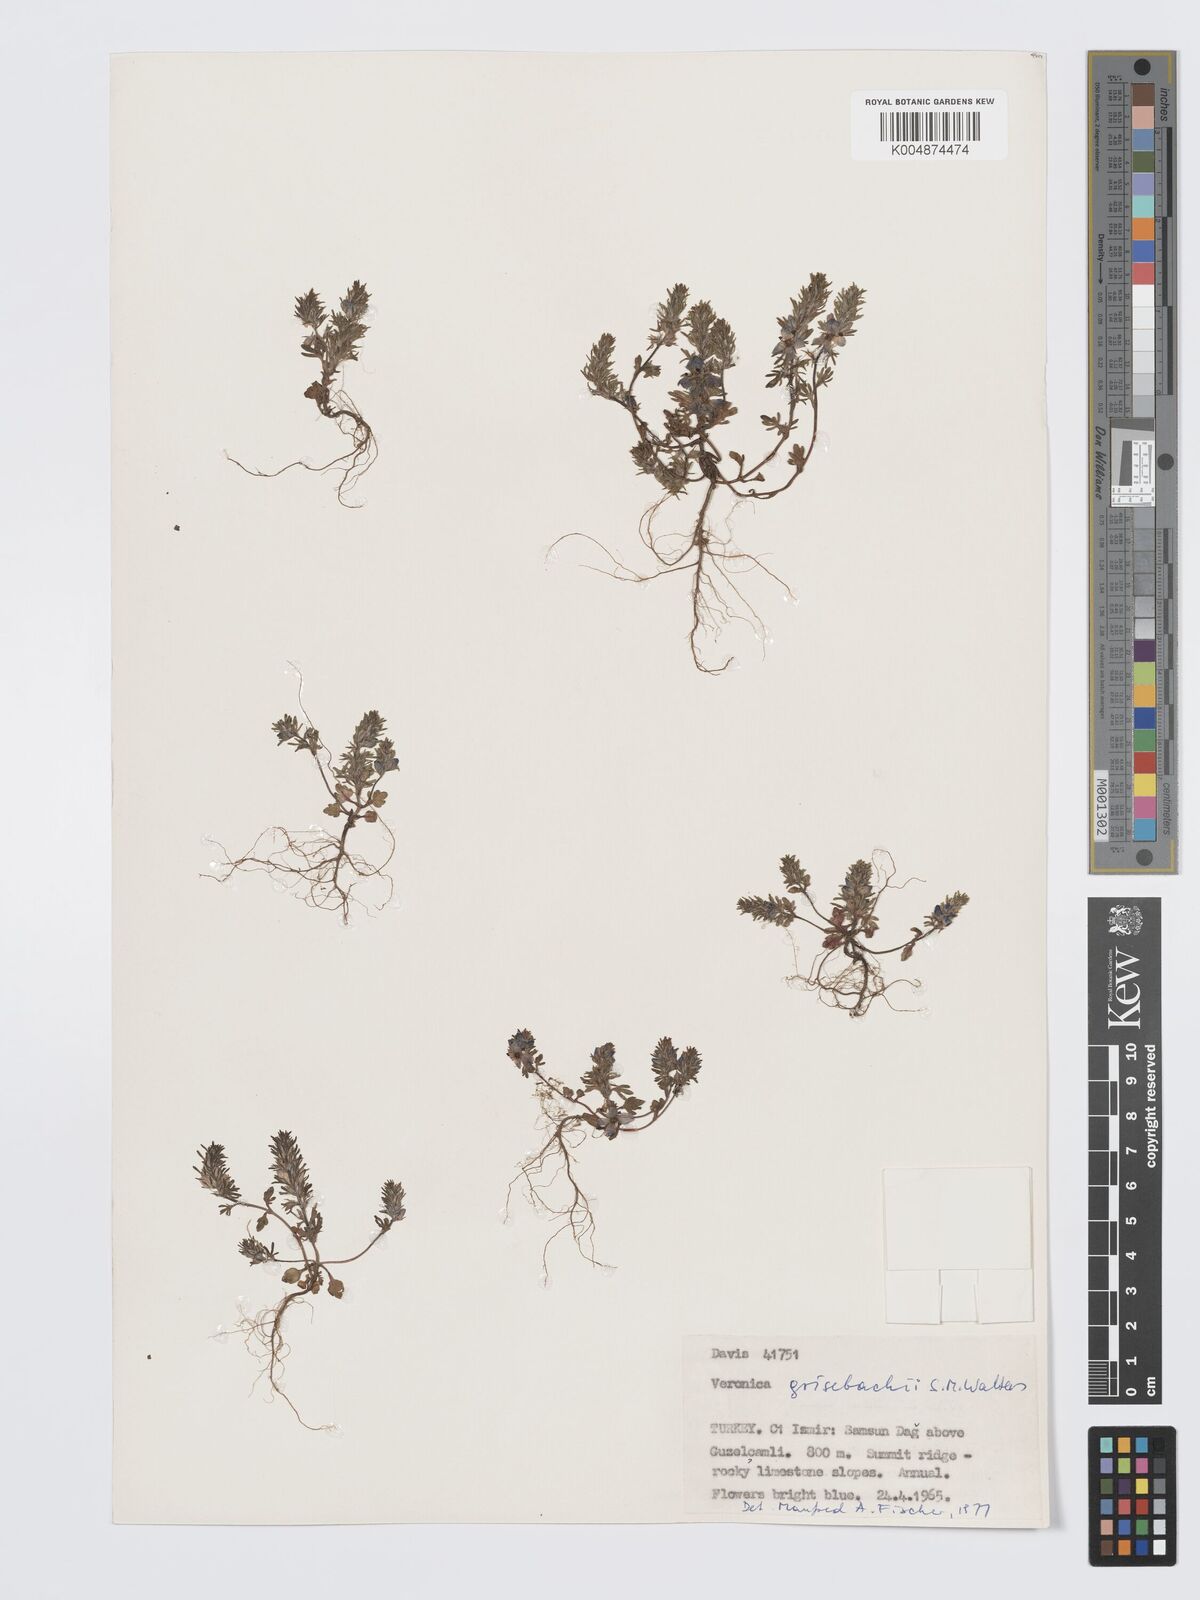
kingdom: Plantae
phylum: Tracheophyta
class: Magnoliopsida
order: Lamiales
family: Plantaginaceae
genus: Veronica
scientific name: Veronica grisebachii
